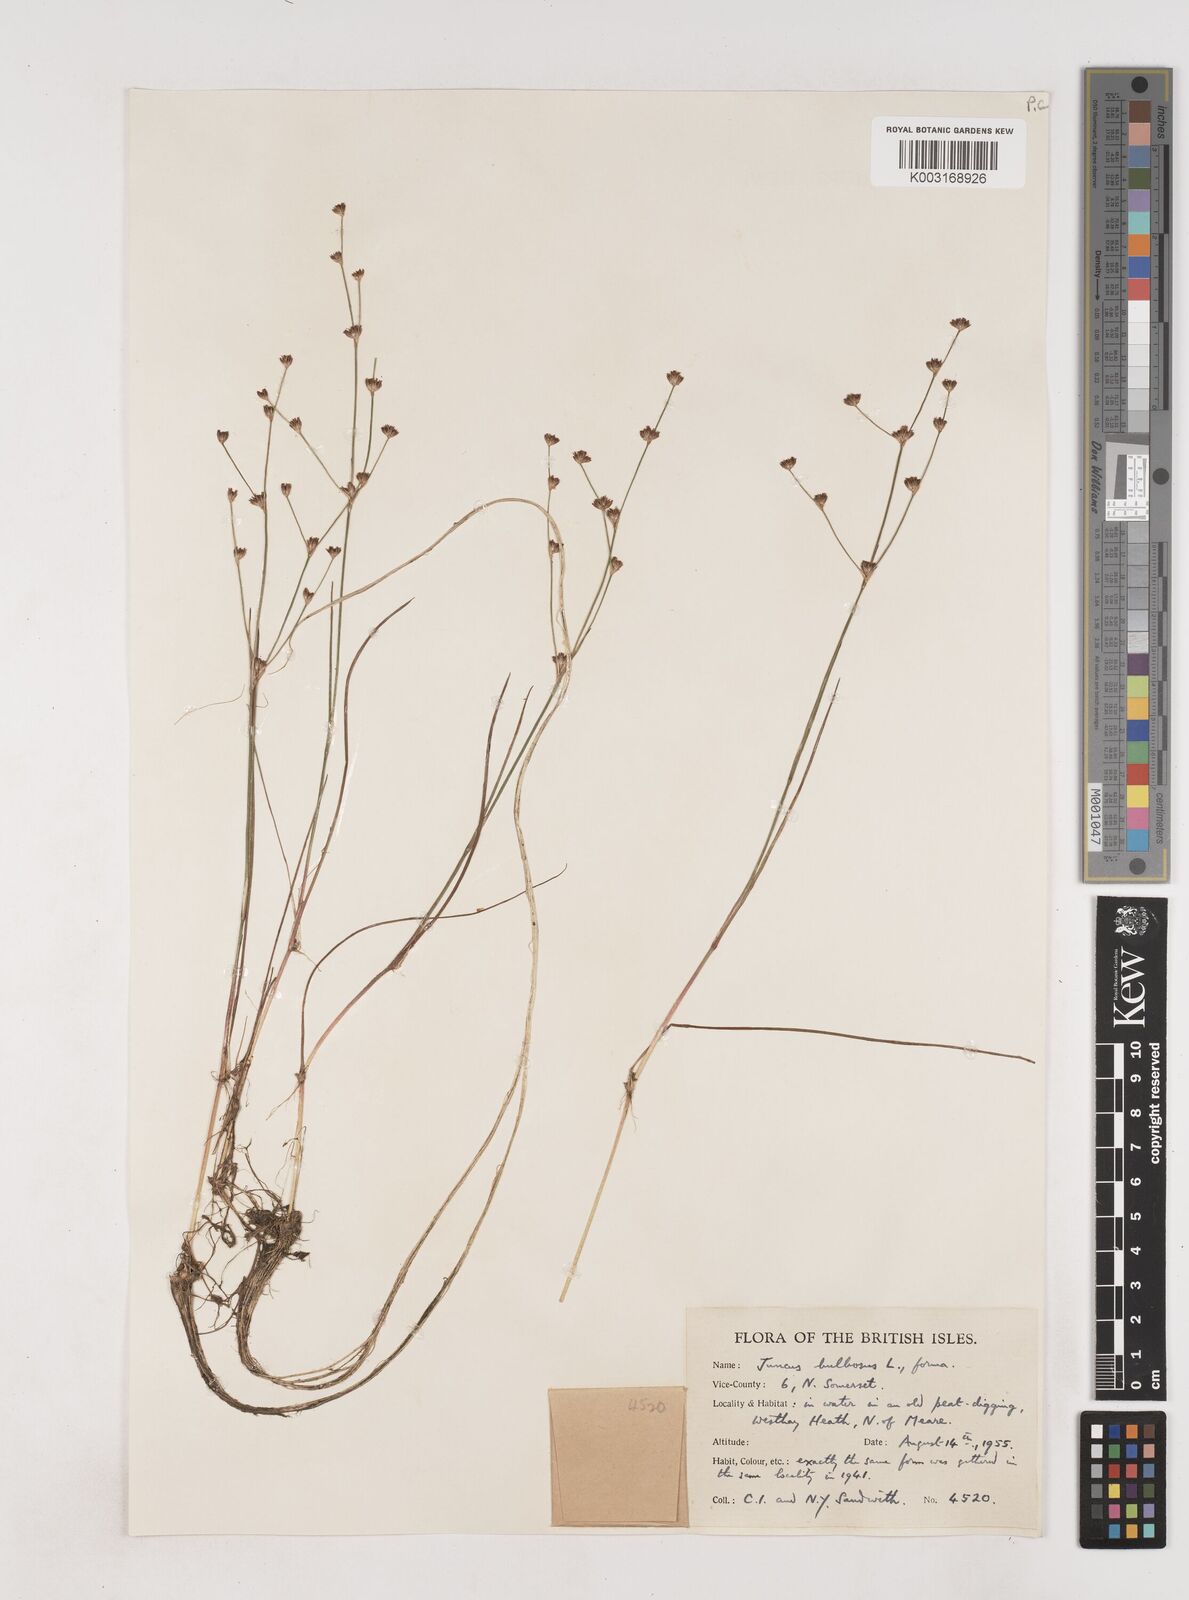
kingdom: Plantae
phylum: Tracheophyta
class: Liliopsida
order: Poales
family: Juncaceae
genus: Juncus
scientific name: Juncus bulbosus
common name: Bulbous rush
